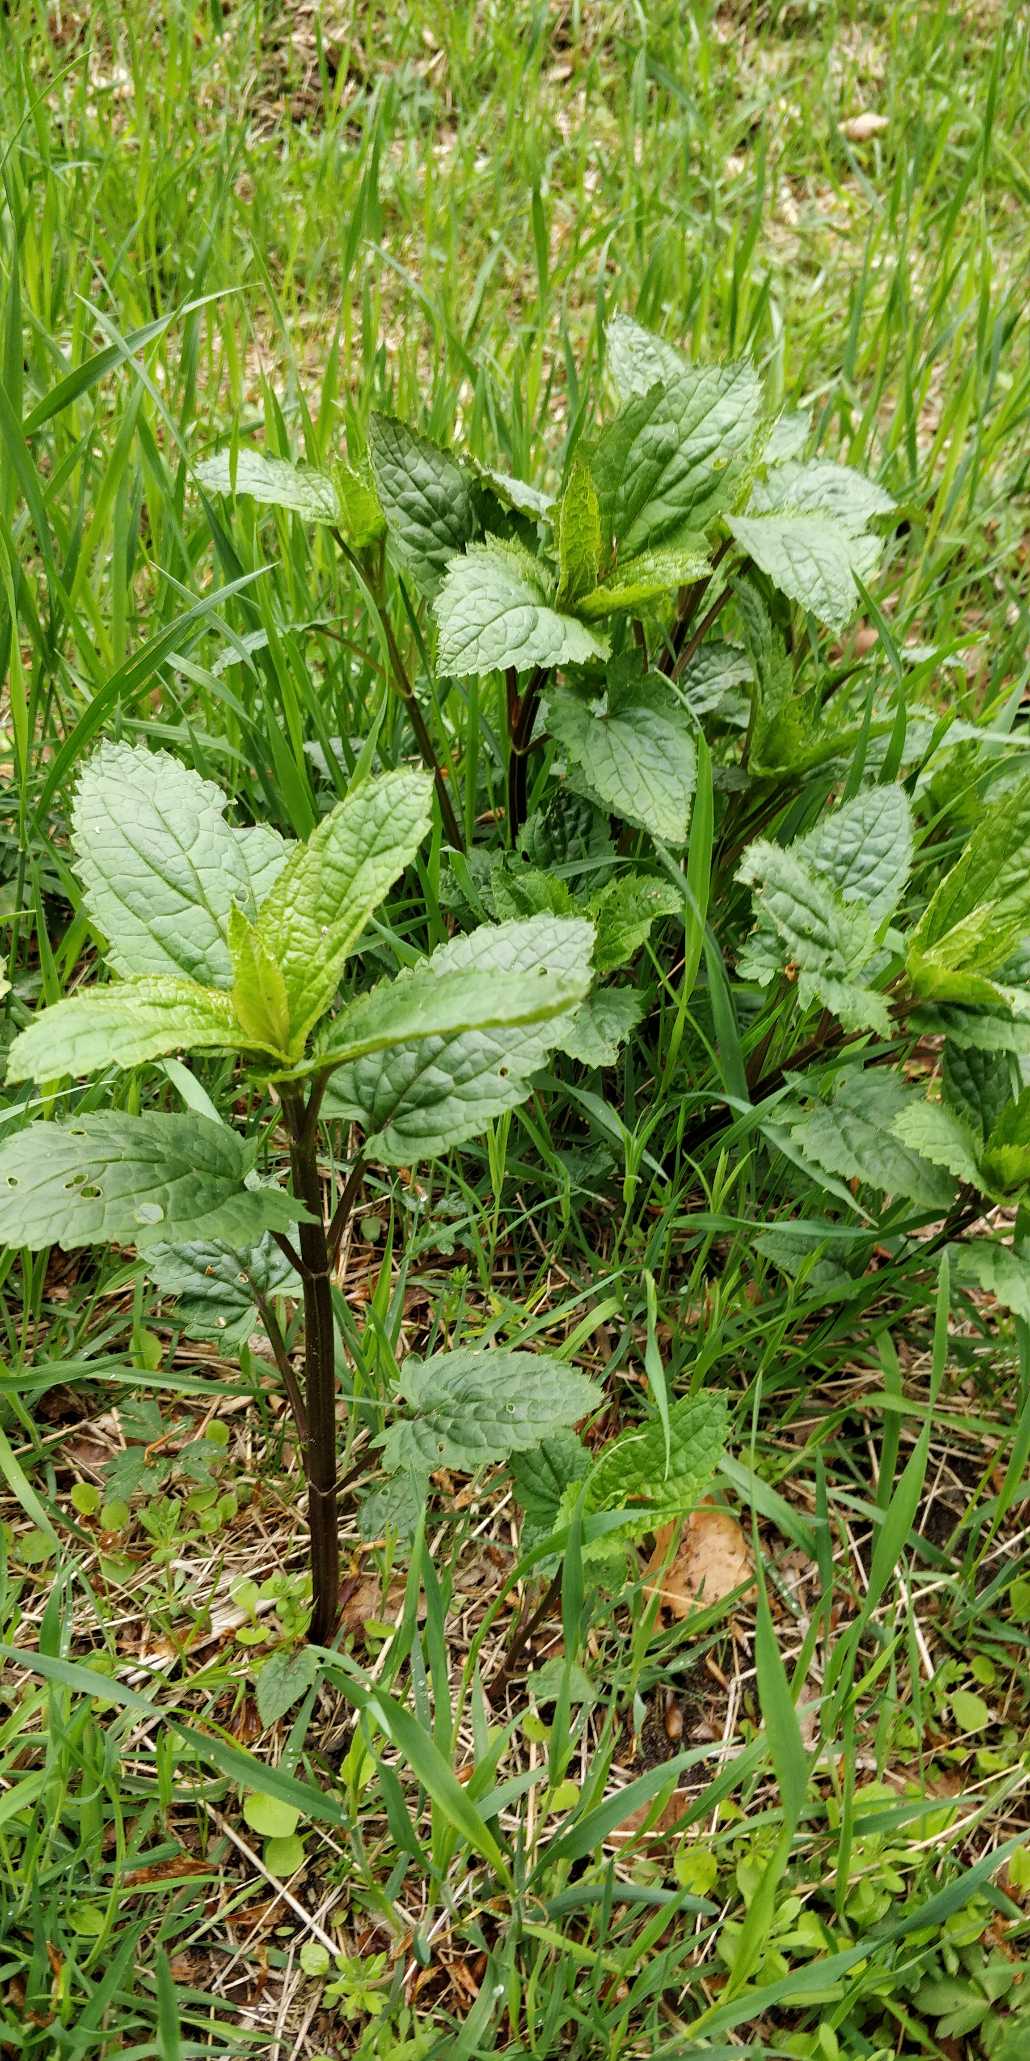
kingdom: Plantae
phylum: Tracheophyta
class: Magnoliopsida
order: Lamiales
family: Scrophulariaceae
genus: Scrophularia
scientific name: Scrophularia nodosa
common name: Knoldet brunrod
